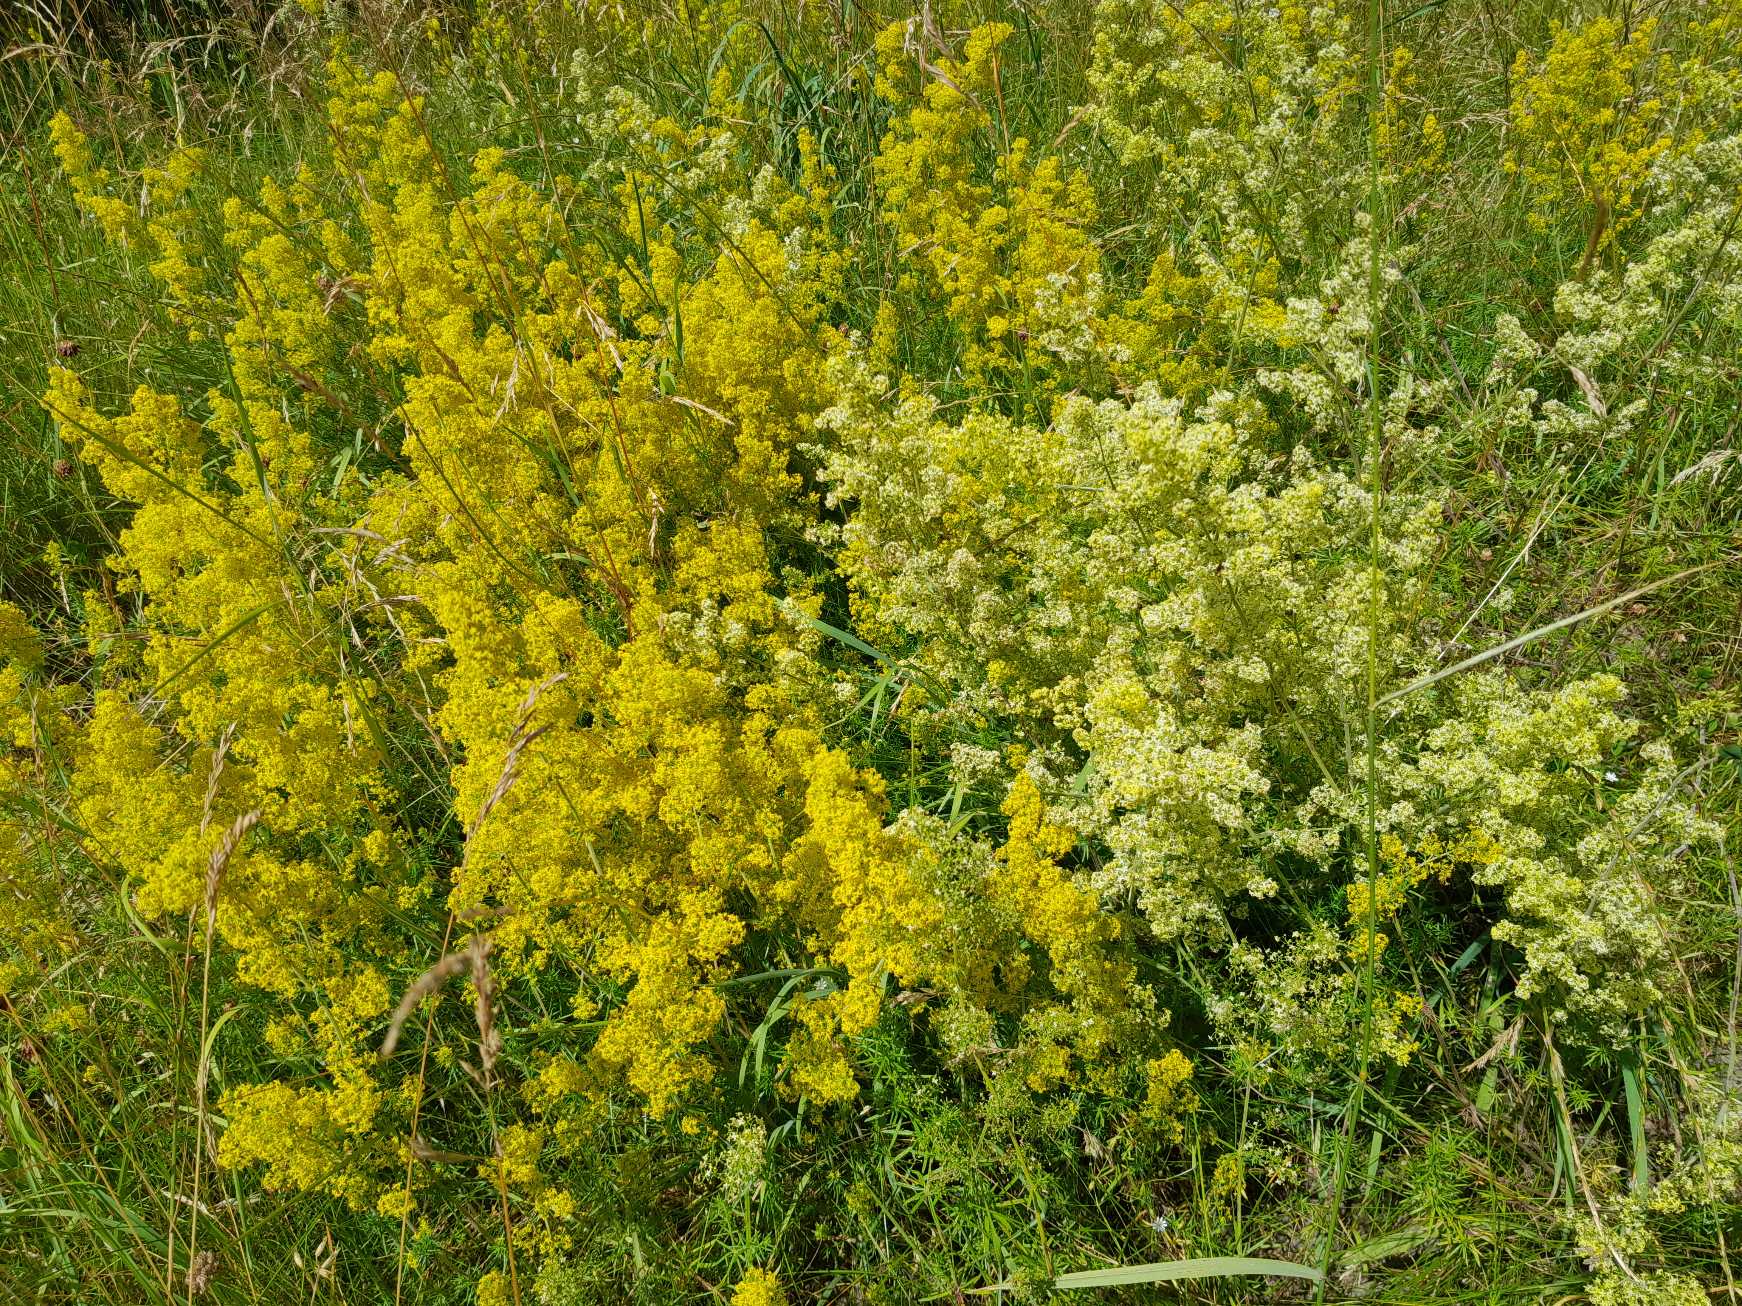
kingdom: Plantae
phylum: Tracheophyta
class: Magnoliopsida
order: Gentianales
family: Rubiaceae
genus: Galium
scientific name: Galium
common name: Hvidgul snerre
